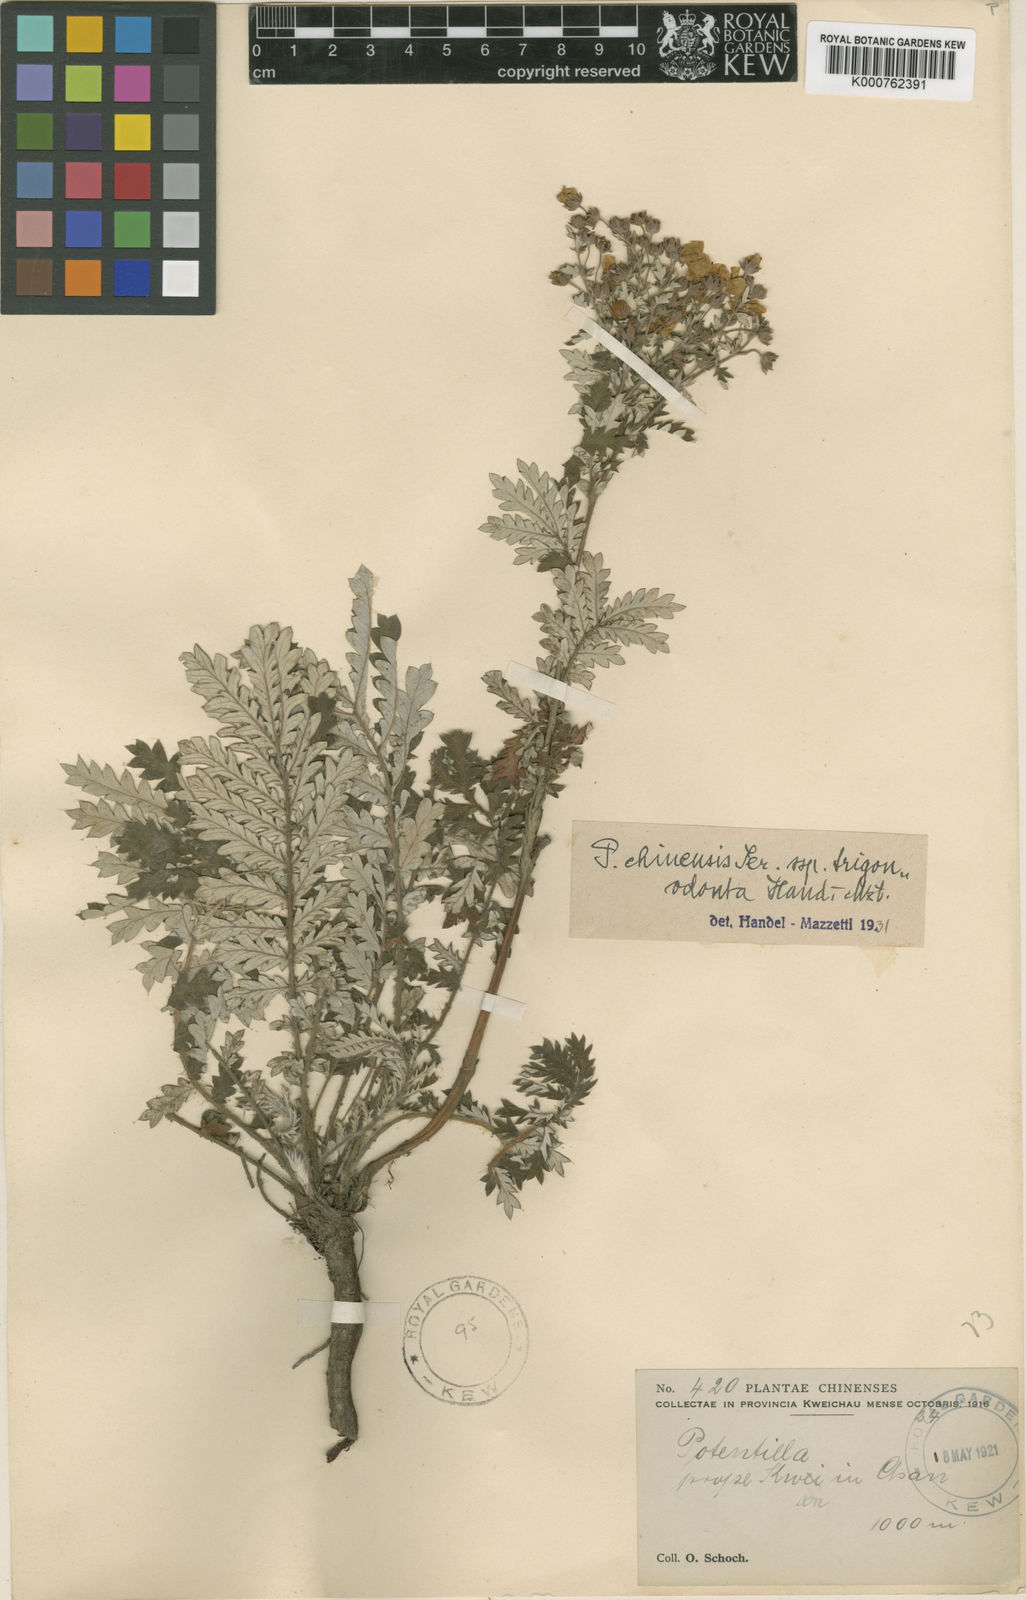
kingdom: Plantae
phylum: Tracheophyta
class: Magnoliopsida
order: Rosales
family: Rosaceae
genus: Potentilla
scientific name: Potentilla chinensis
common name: Chinese cinquefoil
